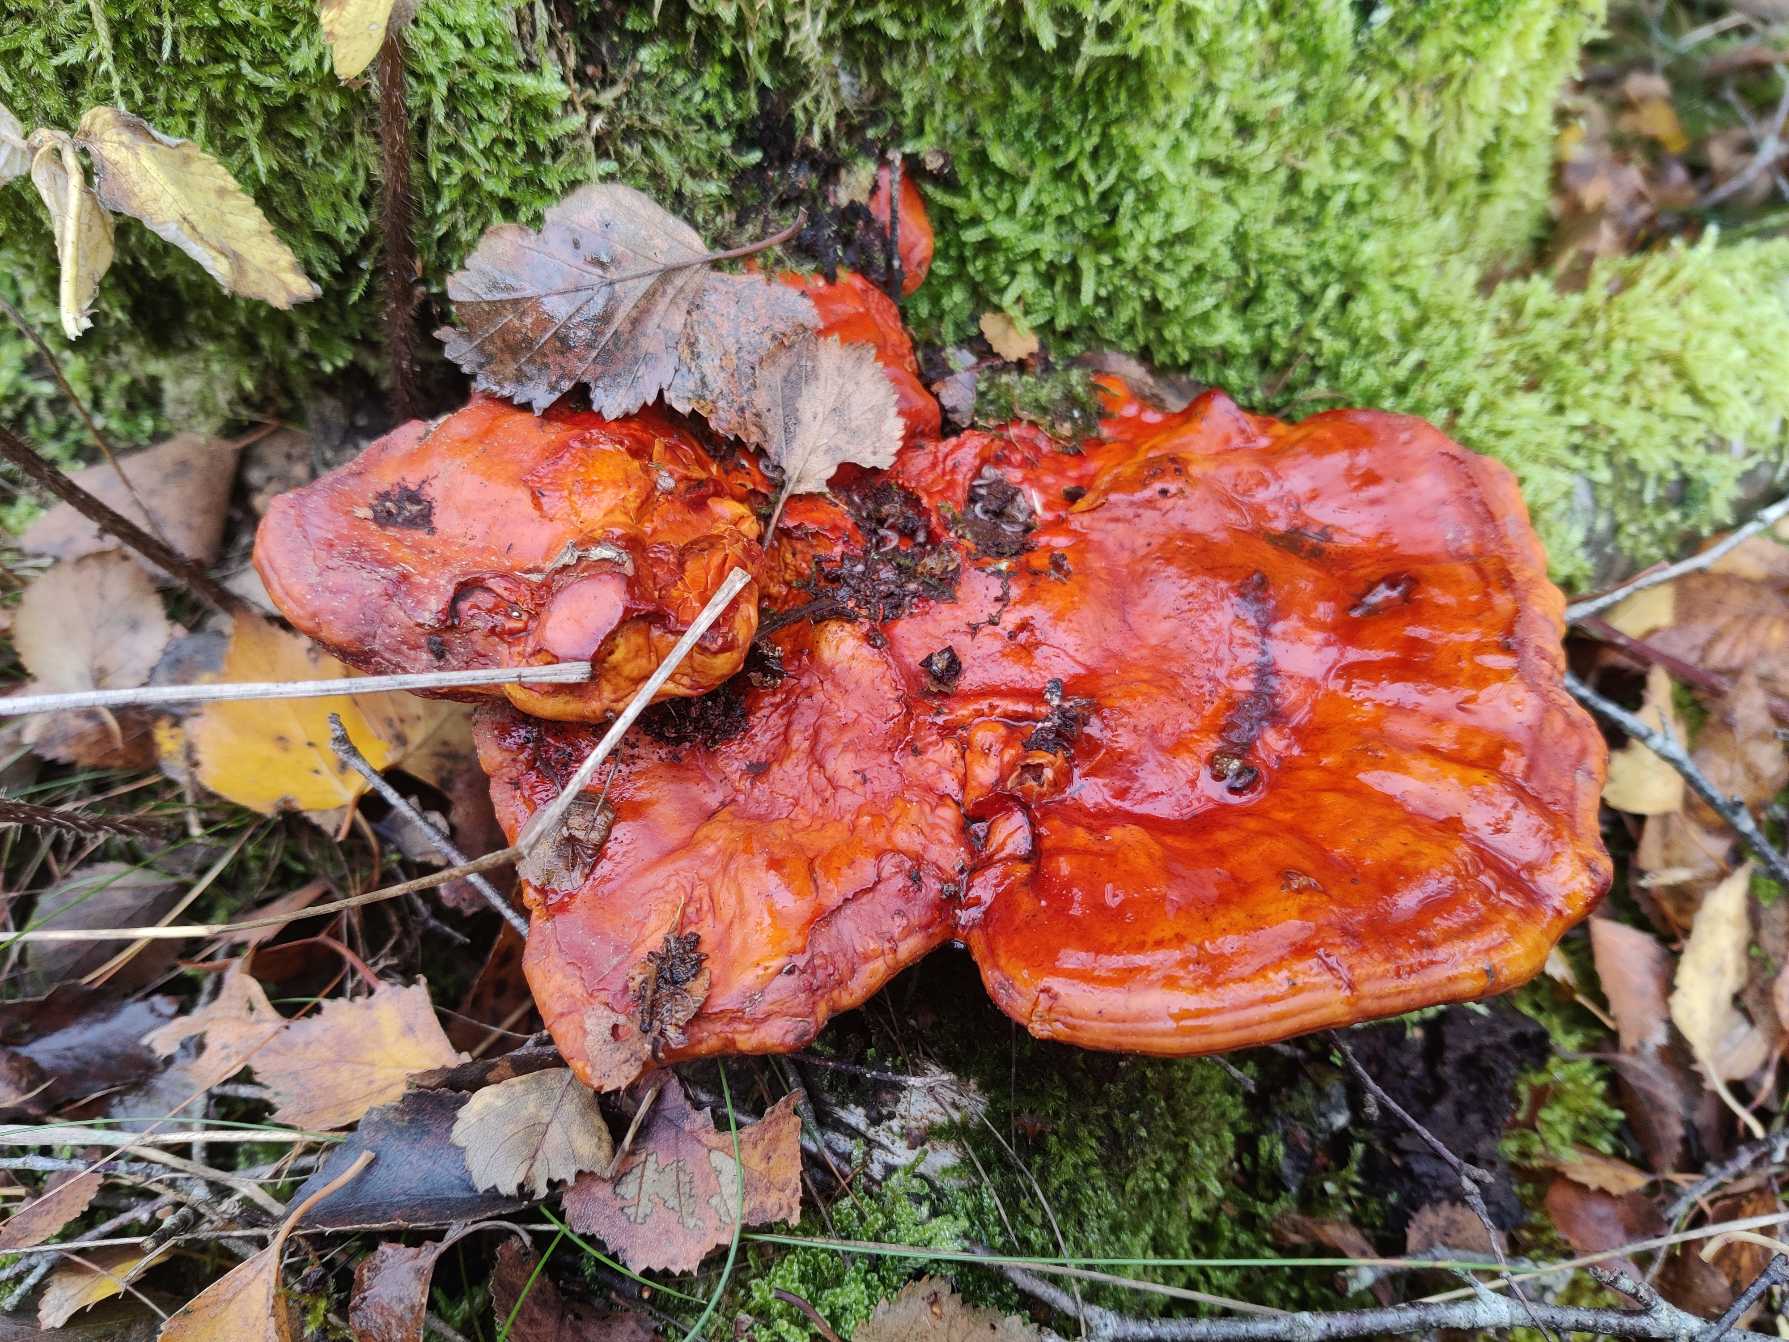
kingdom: Fungi
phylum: Basidiomycota
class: Agaricomycetes
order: Polyporales
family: Polyporaceae
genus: Ganoderma
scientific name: Ganoderma lucidum
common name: Skinnende lakporesvamp
